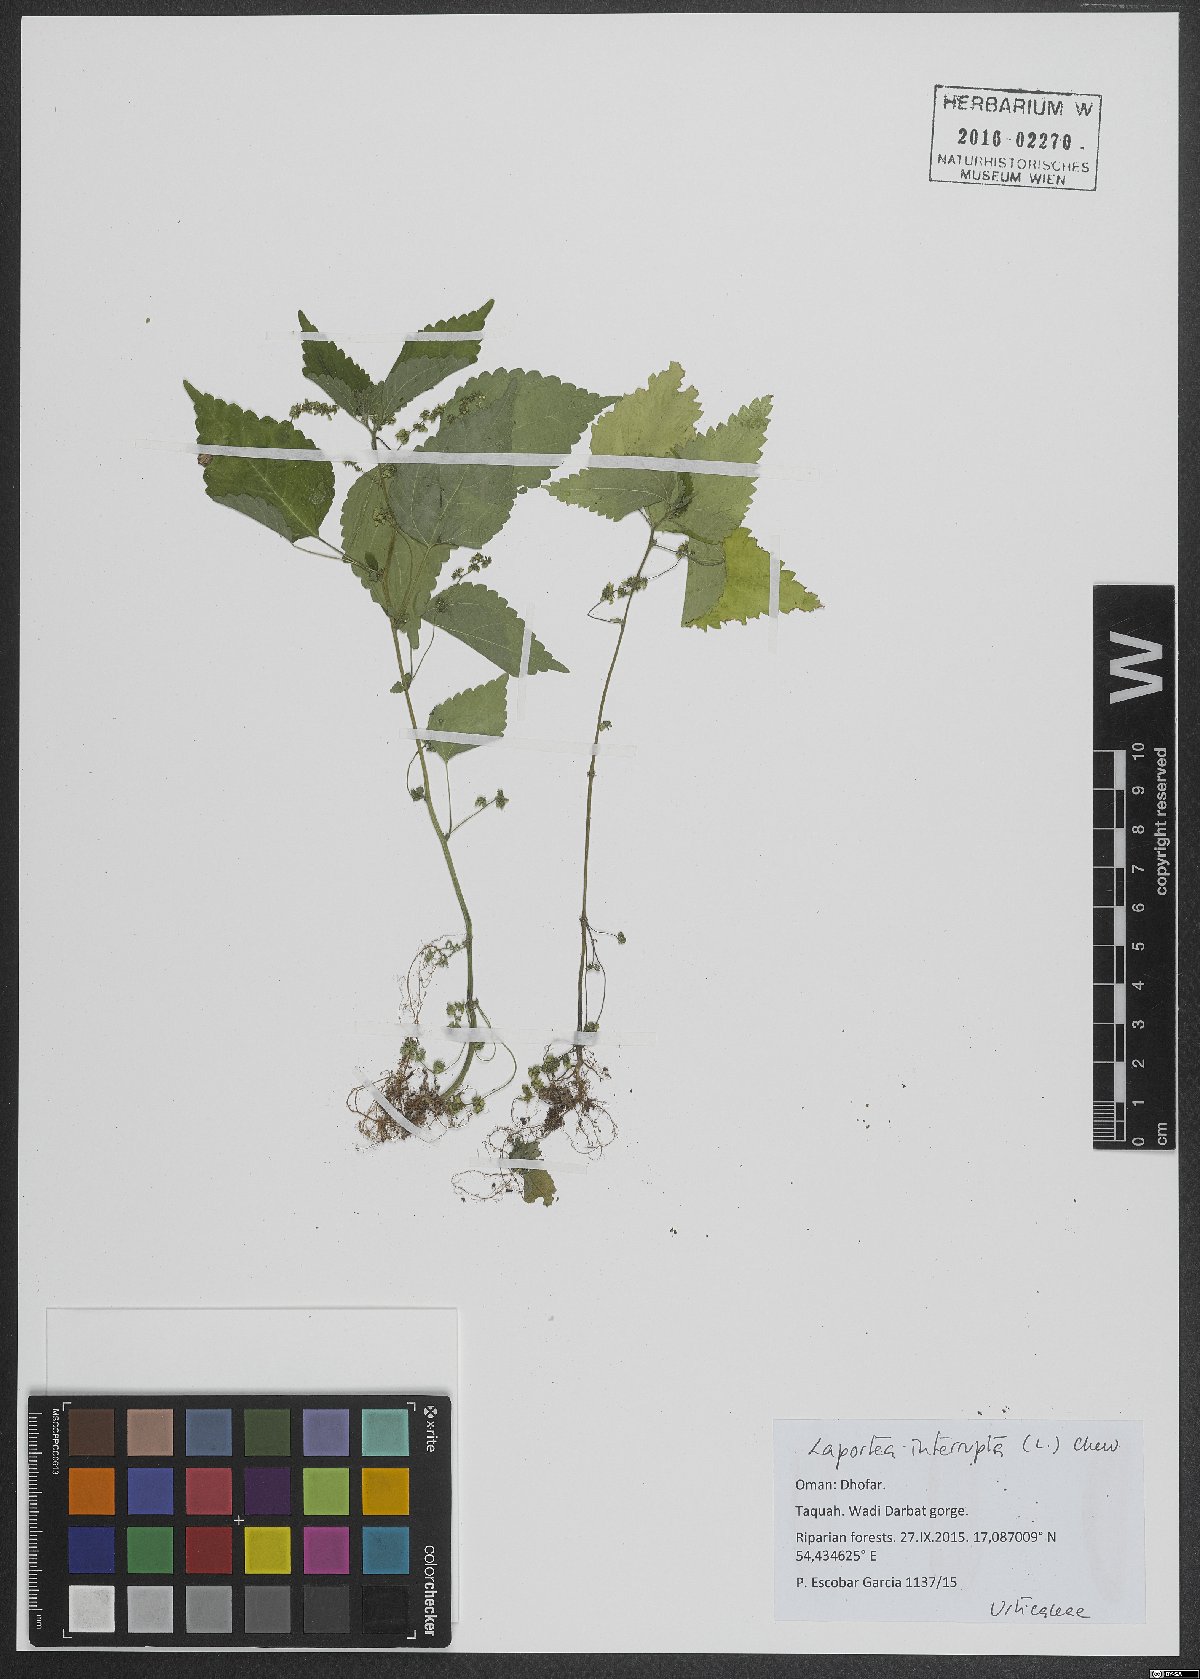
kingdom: Plantae
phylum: Tracheophyta
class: Magnoliopsida
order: Rosales
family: Urticaceae
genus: Laportea
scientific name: Laportea interrupta
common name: Hawaiian wood-nettle
